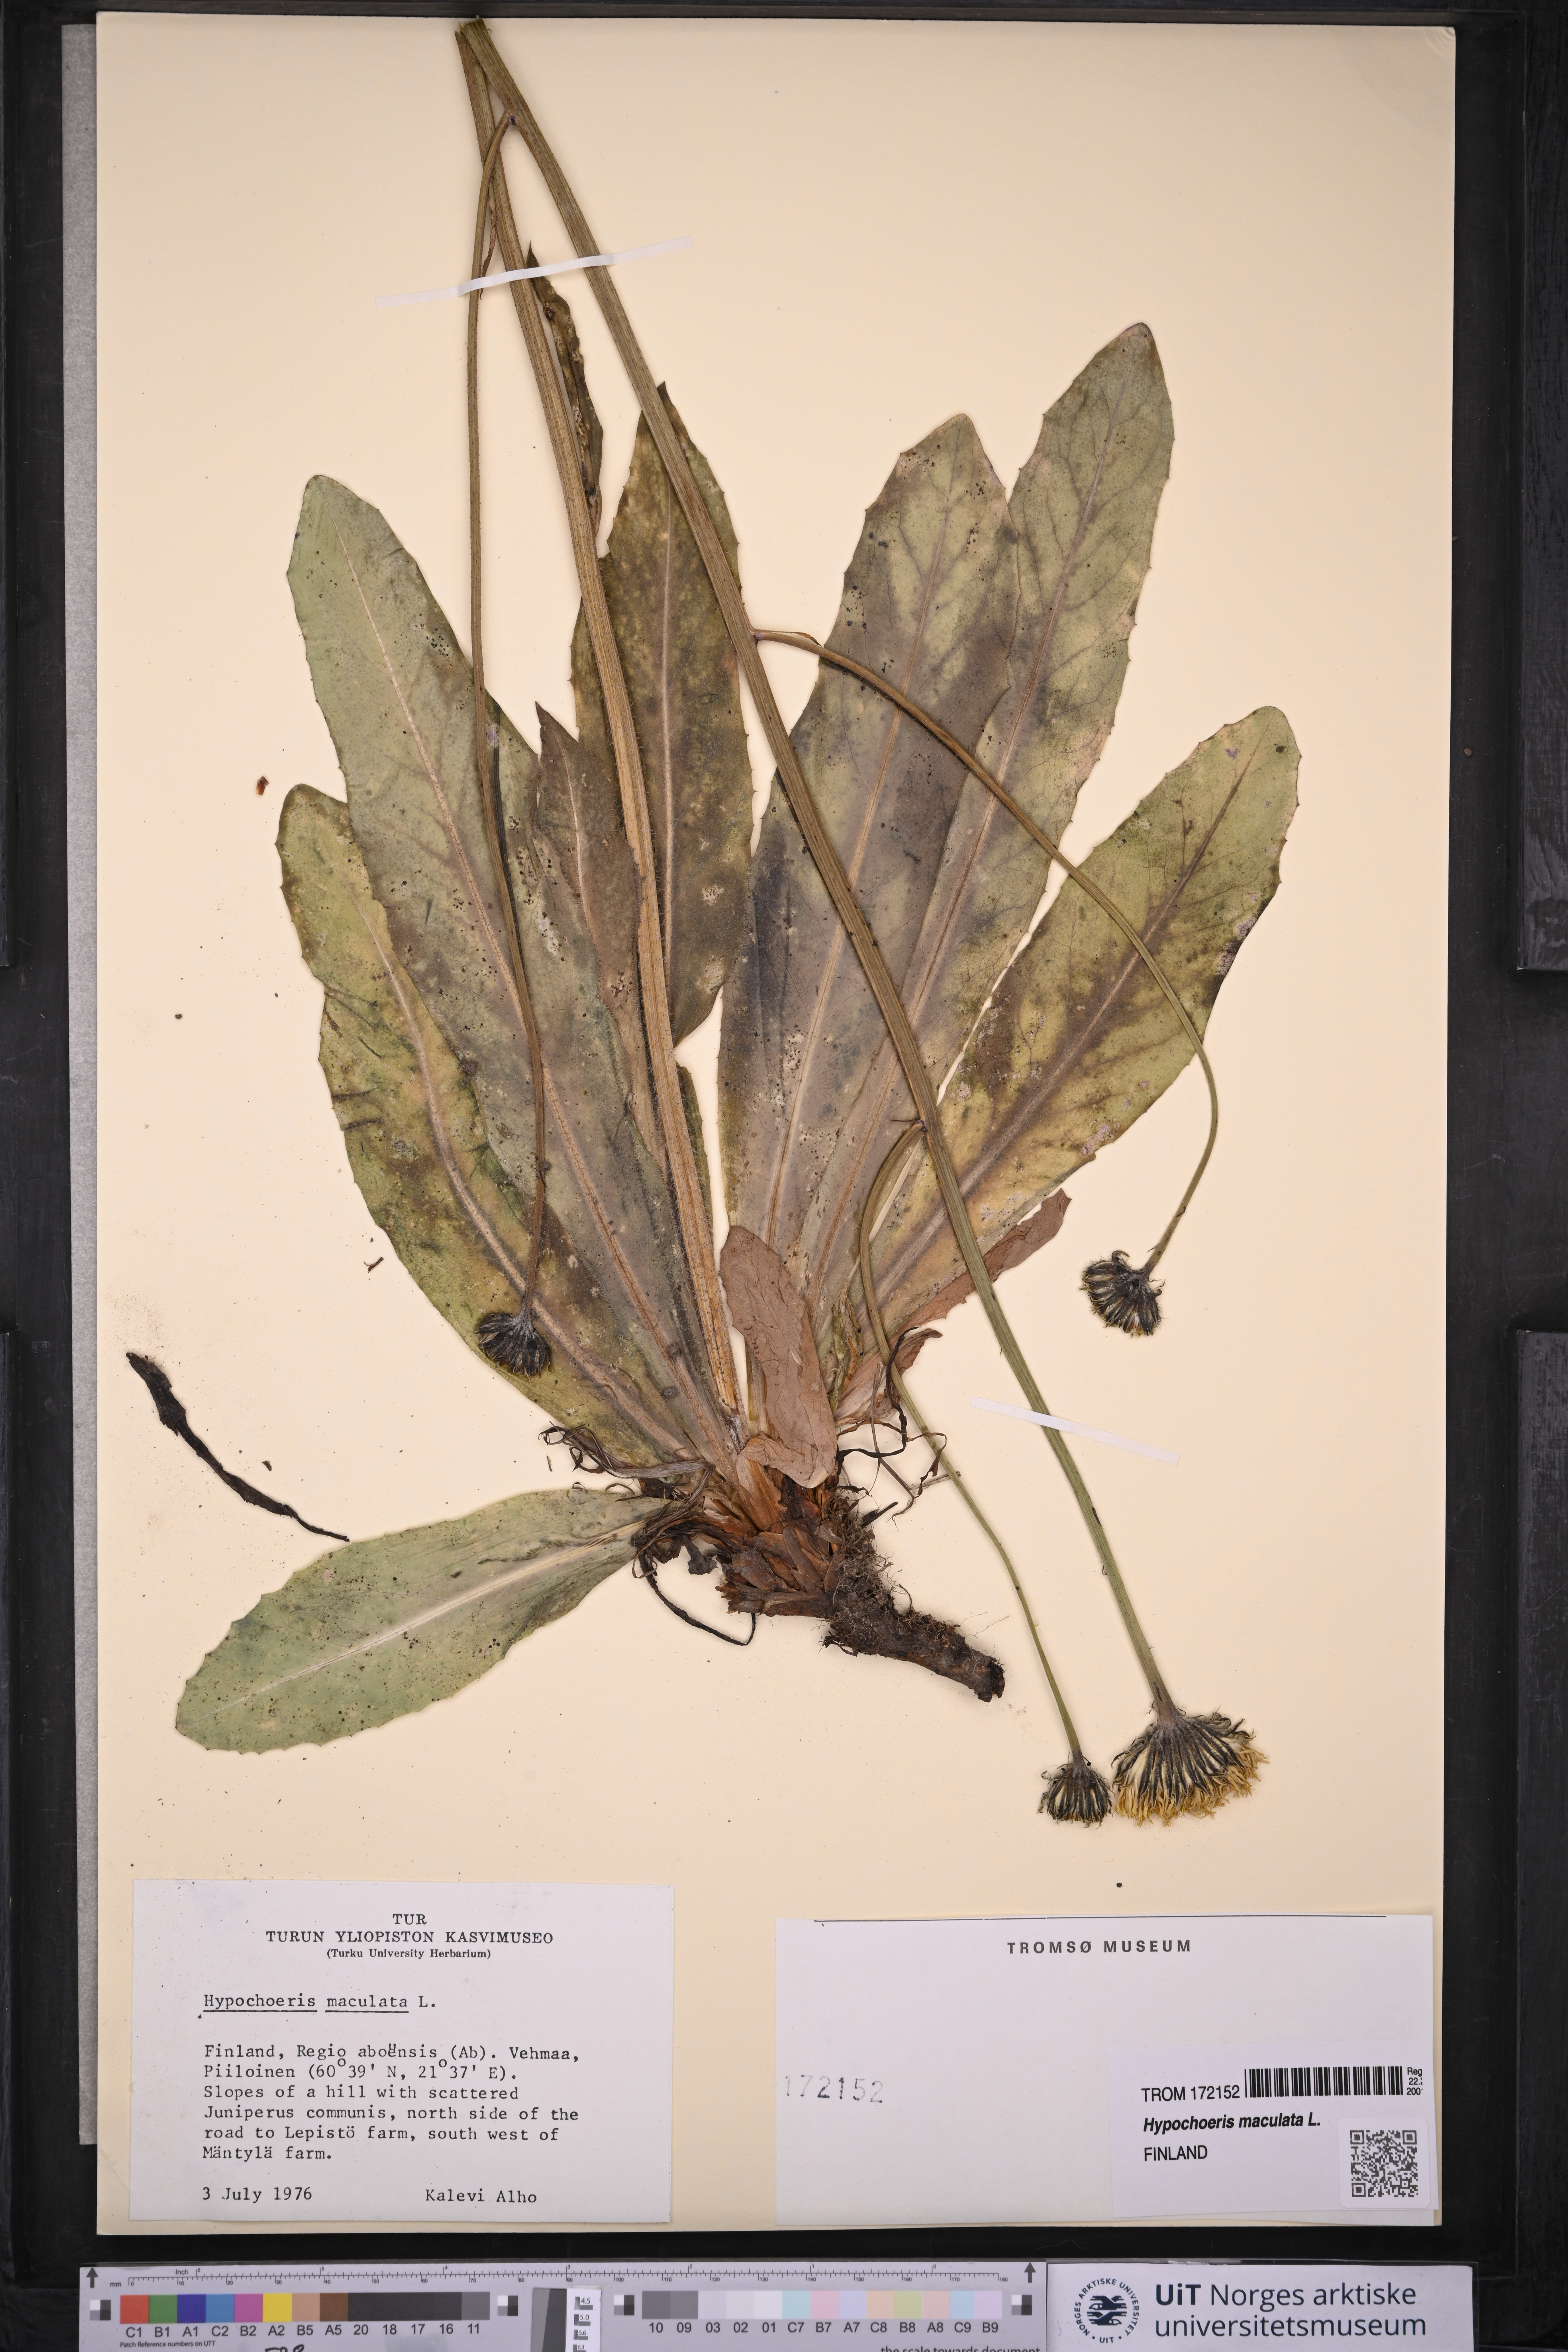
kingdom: Plantae
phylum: Tracheophyta
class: Magnoliopsida
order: Asterales
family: Asteraceae
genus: Trommsdorffia
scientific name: Trommsdorffia maculata
